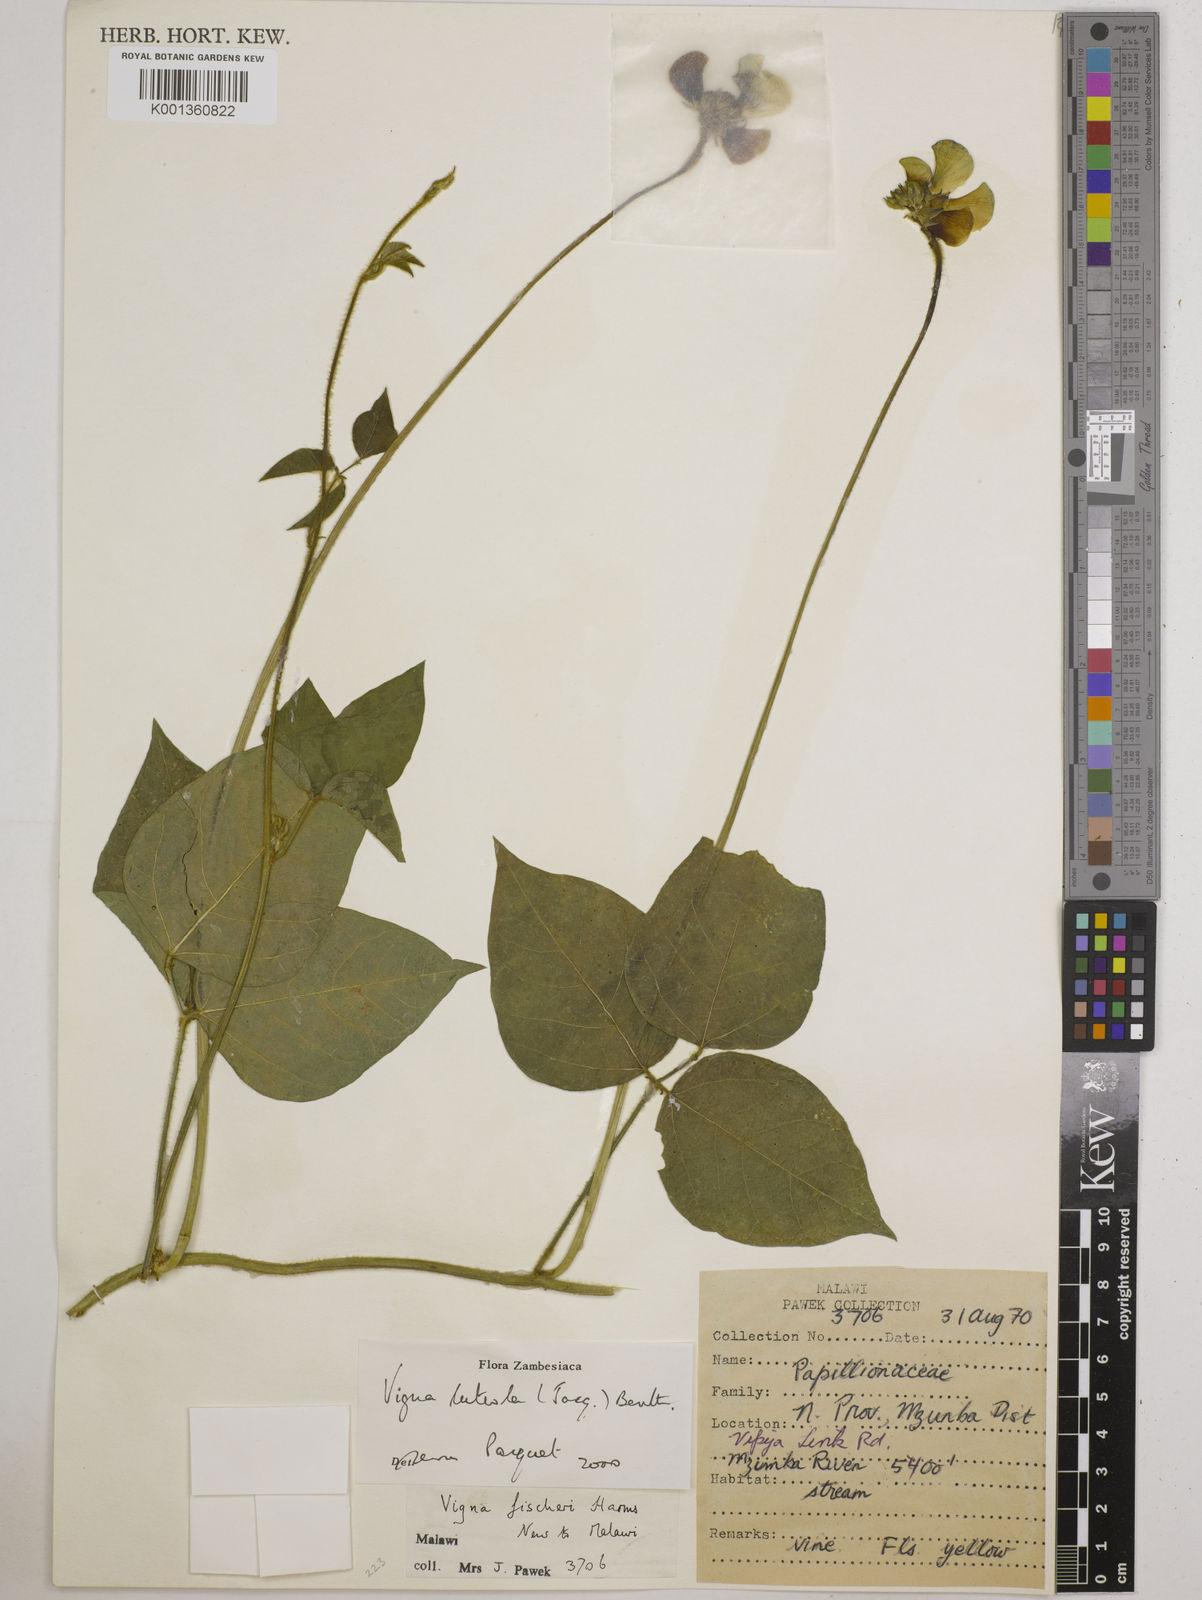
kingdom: Plantae
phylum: Tracheophyta
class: Magnoliopsida
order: Fabales
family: Fabaceae
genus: Vigna
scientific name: Vigna luteola
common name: Hairypod cowpea
